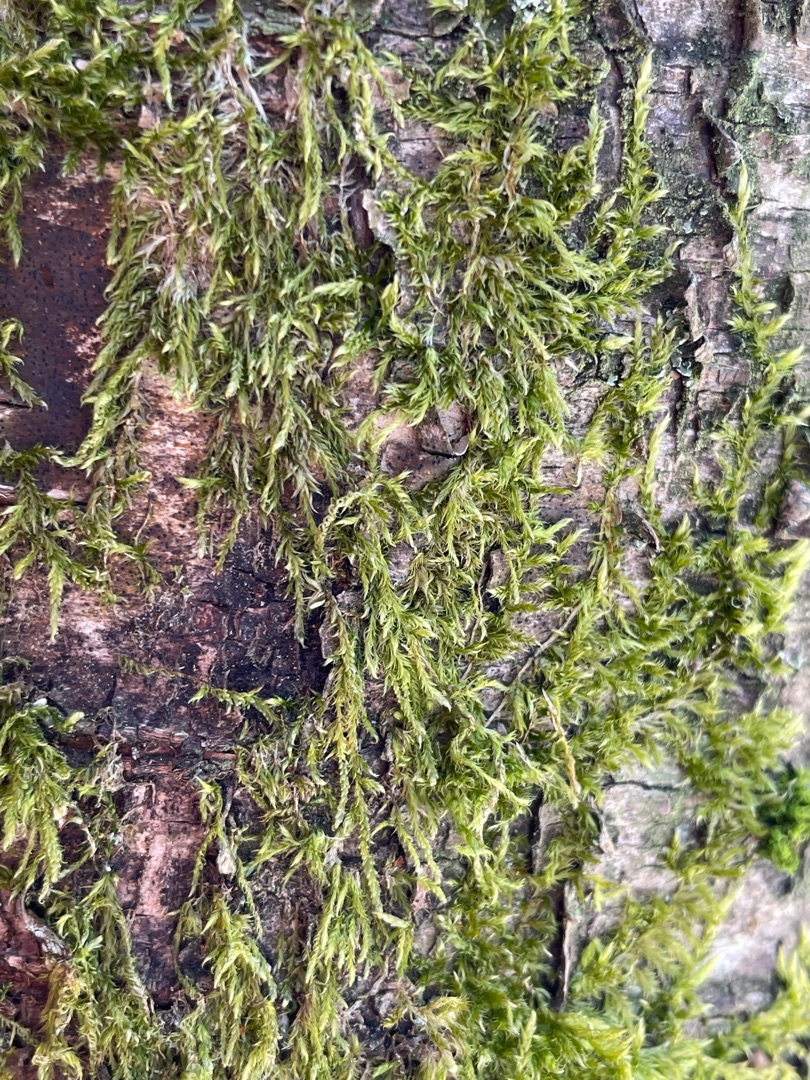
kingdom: Plantae
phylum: Bryophyta
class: Bryopsida
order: Hypnales
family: Hypnaceae
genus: Hypnum
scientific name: Hypnum
